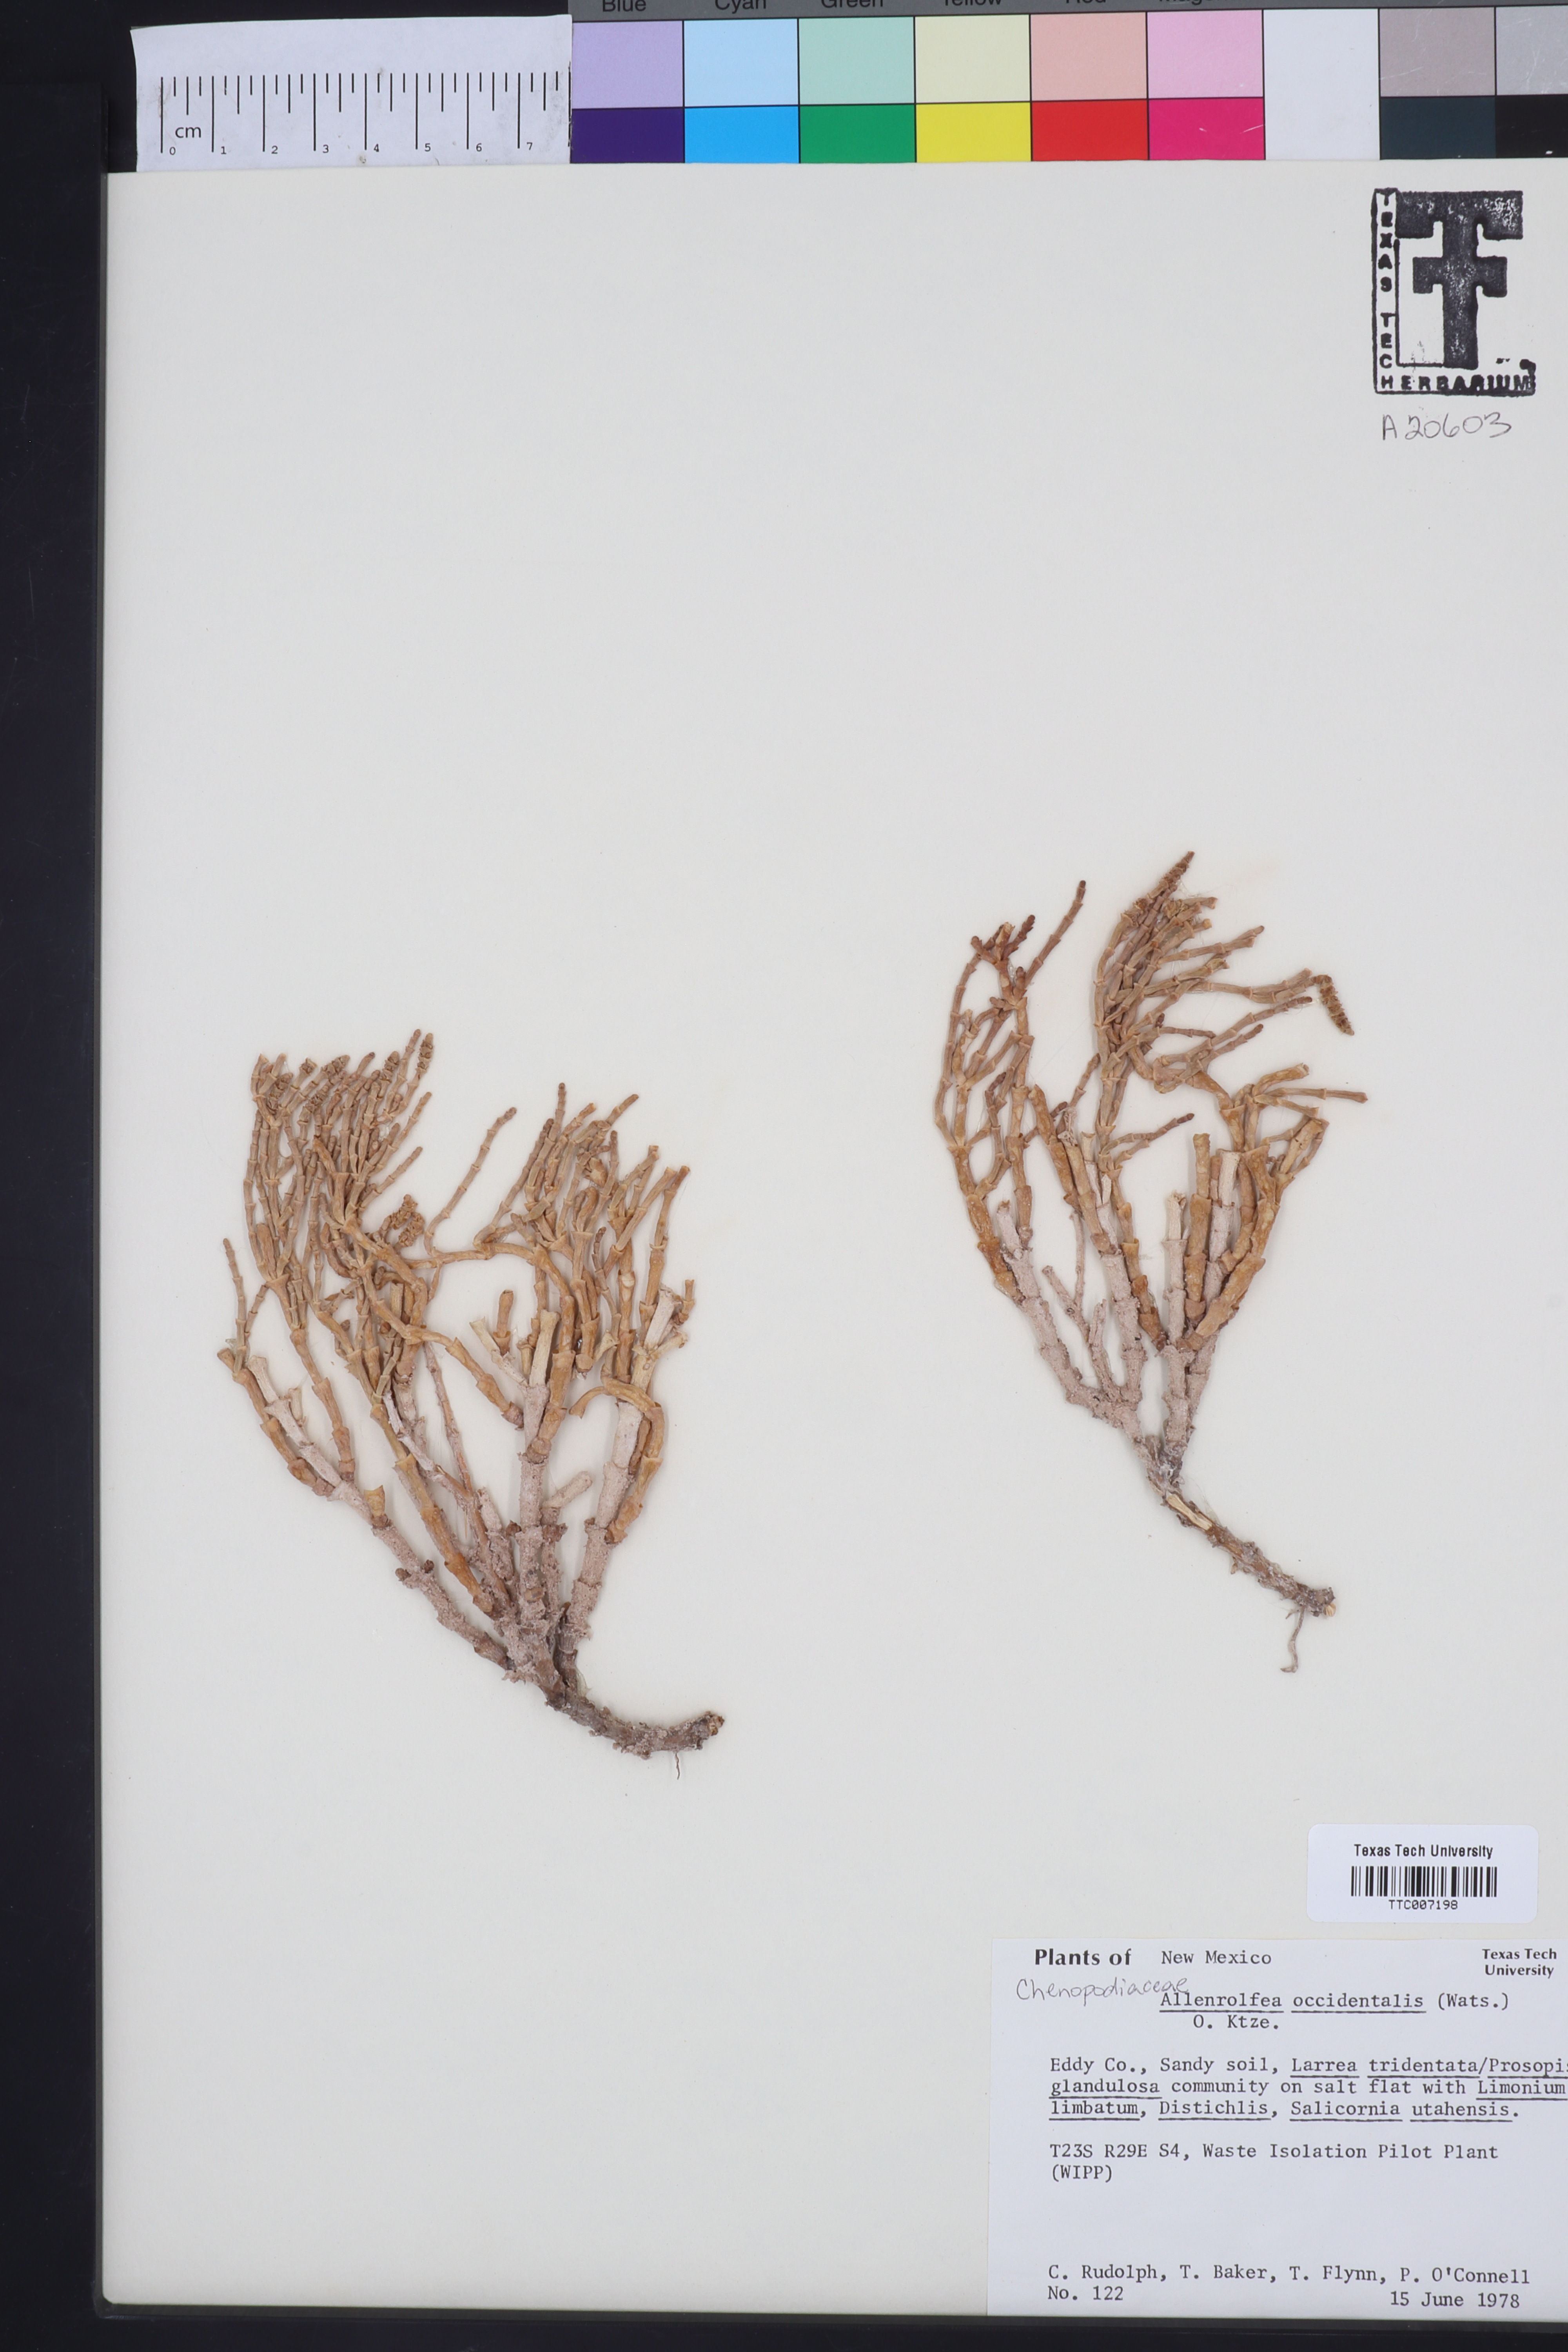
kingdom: Plantae
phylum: Tracheophyta
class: Magnoliopsida
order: Caryophyllales
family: Amaranthaceae
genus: Allenrolfea
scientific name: Allenrolfea occidentalis
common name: Iodine-bush
